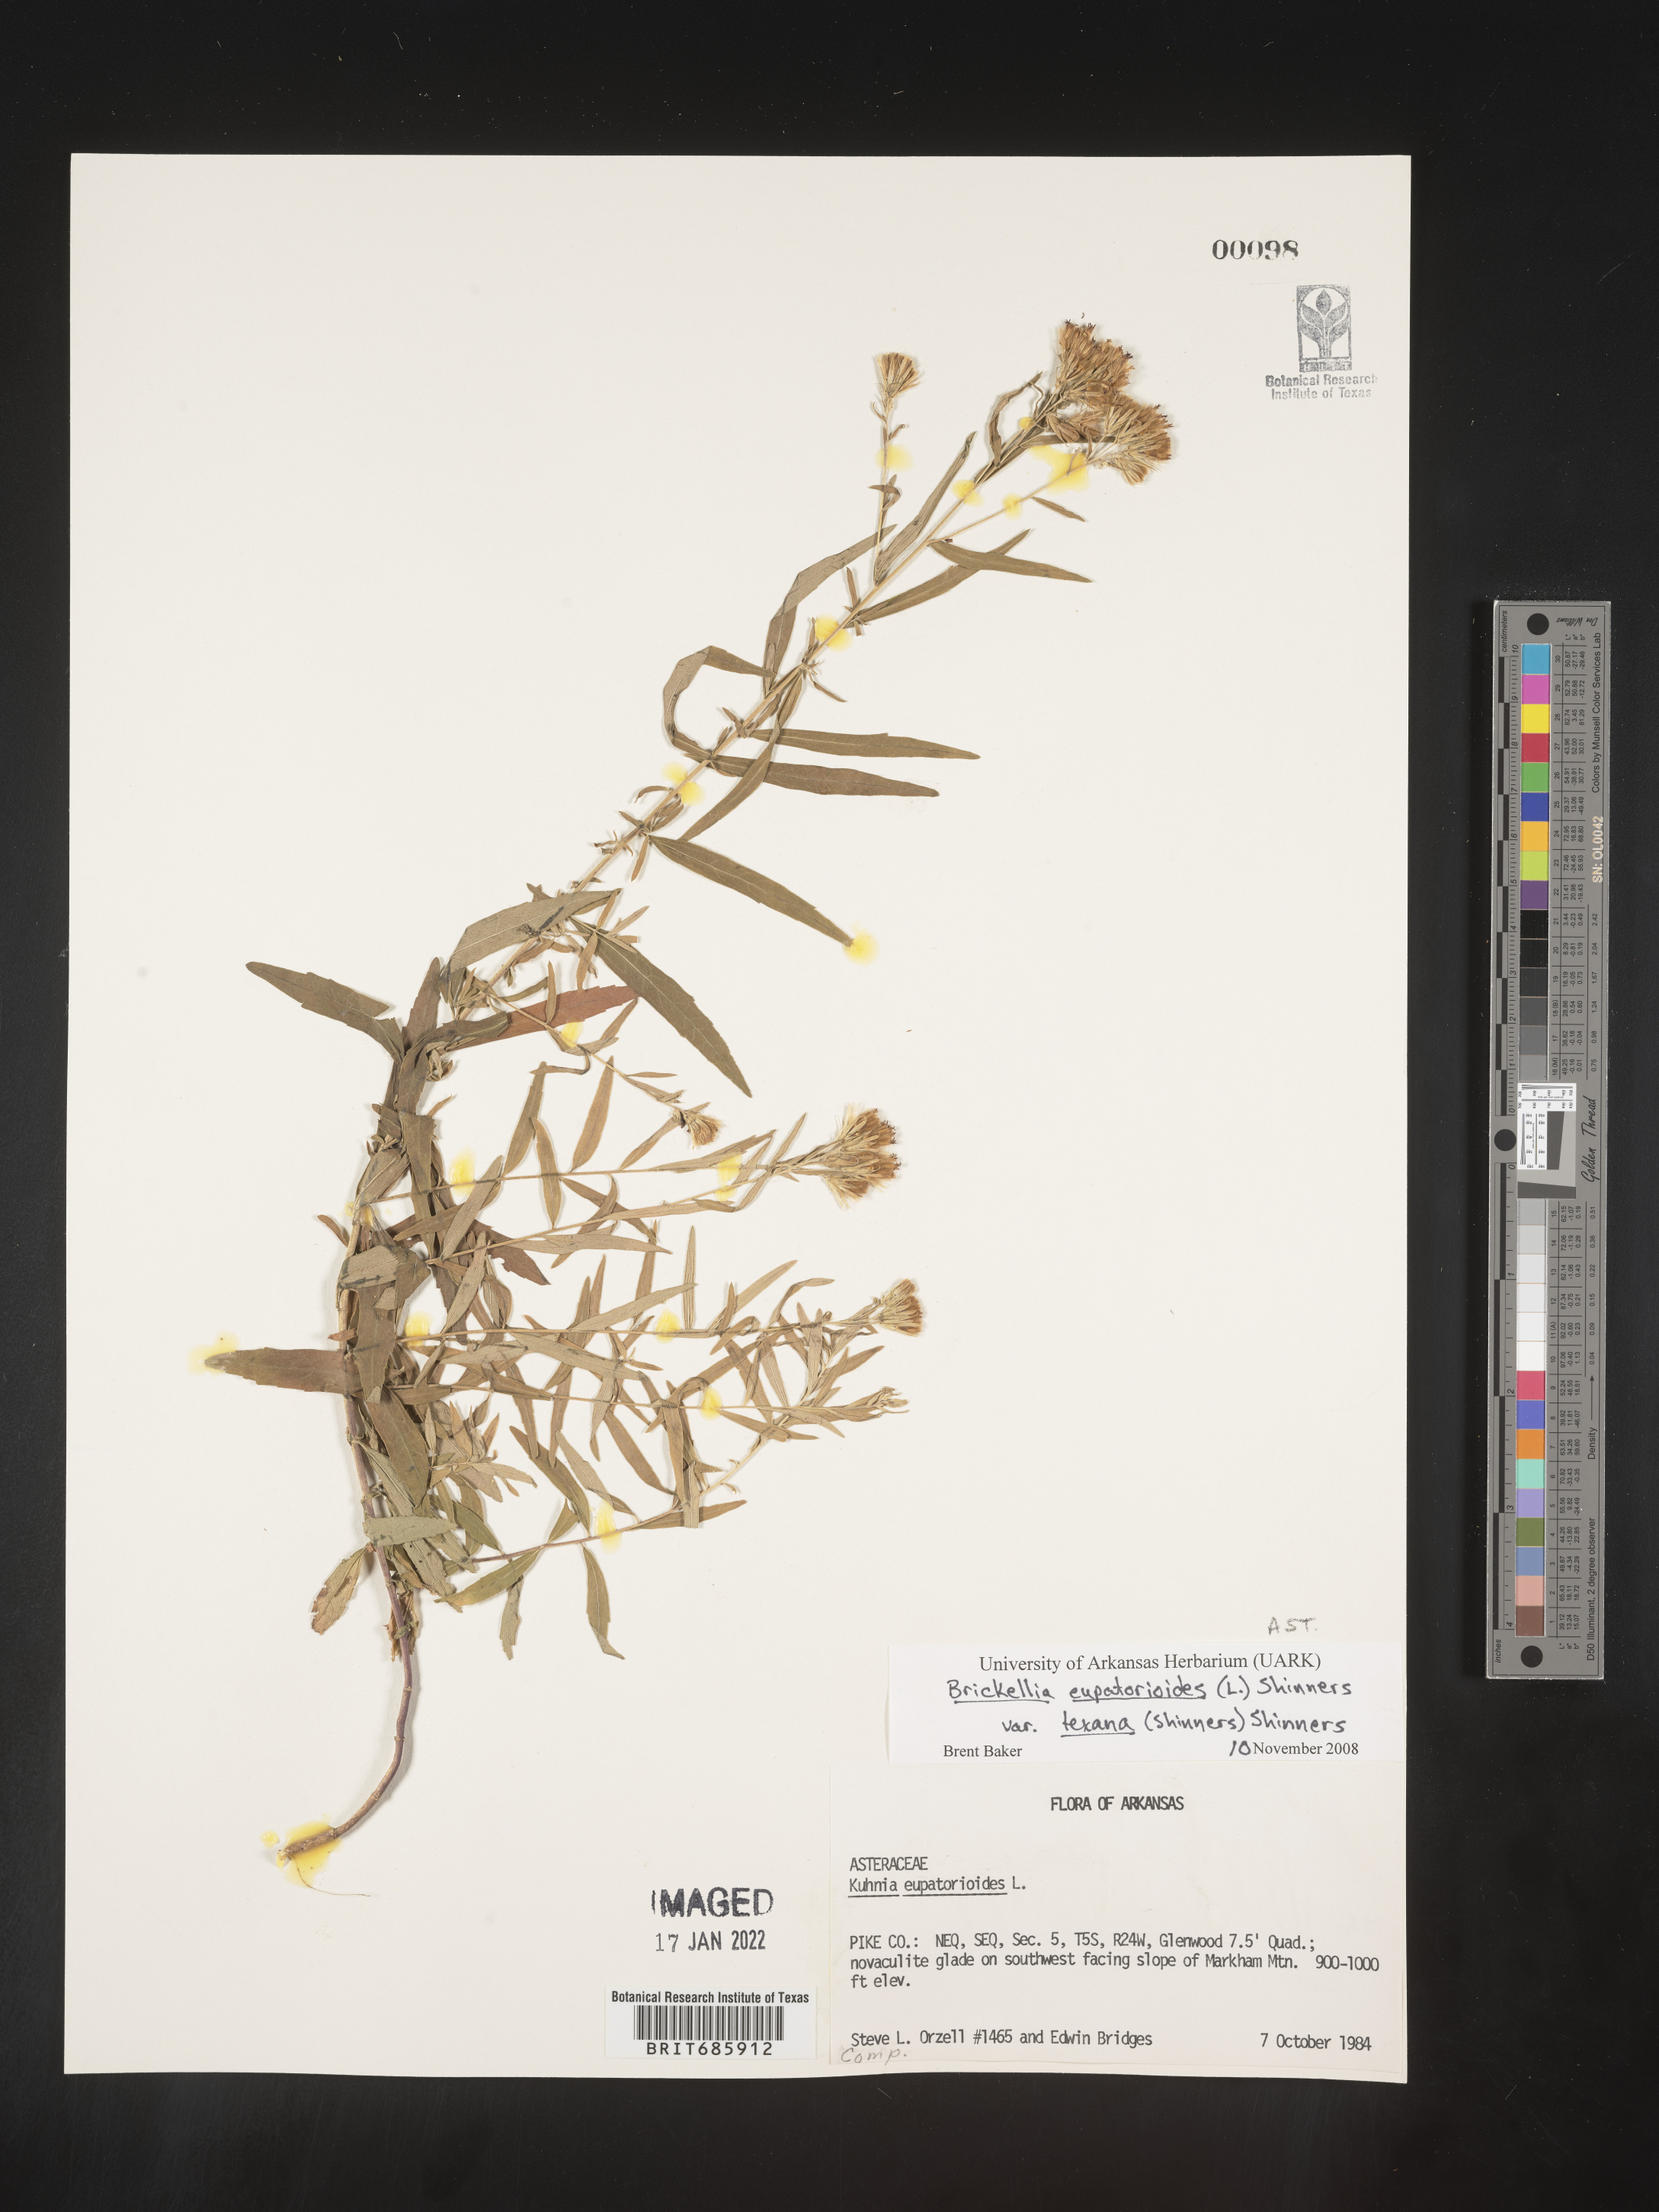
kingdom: Plantae
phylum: Tracheophyta
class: Magnoliopsida
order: Asterales
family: Asteraceae
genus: Brickellia
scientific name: Brickellia macranthra
